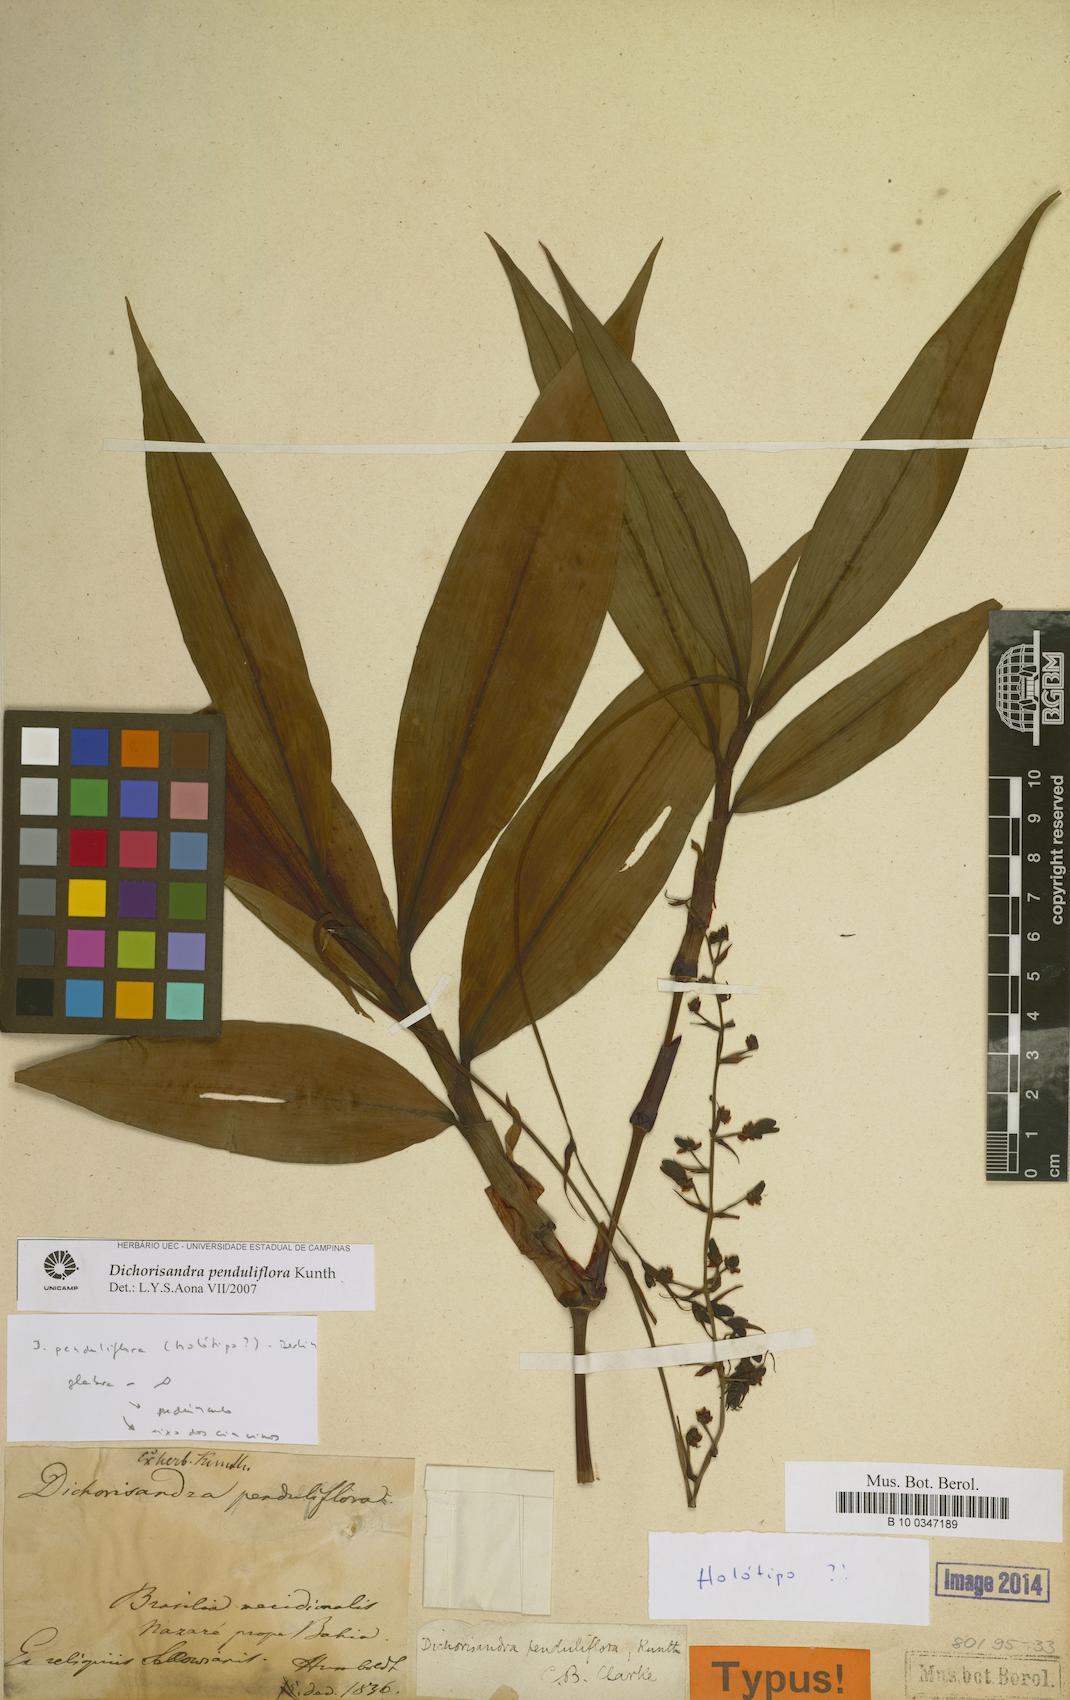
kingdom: Plantae
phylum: Tracheophyta
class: Liliopsida
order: Commelinales
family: Commelinaceae
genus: Dichorisandra
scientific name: Dichorisandra penduliflora
